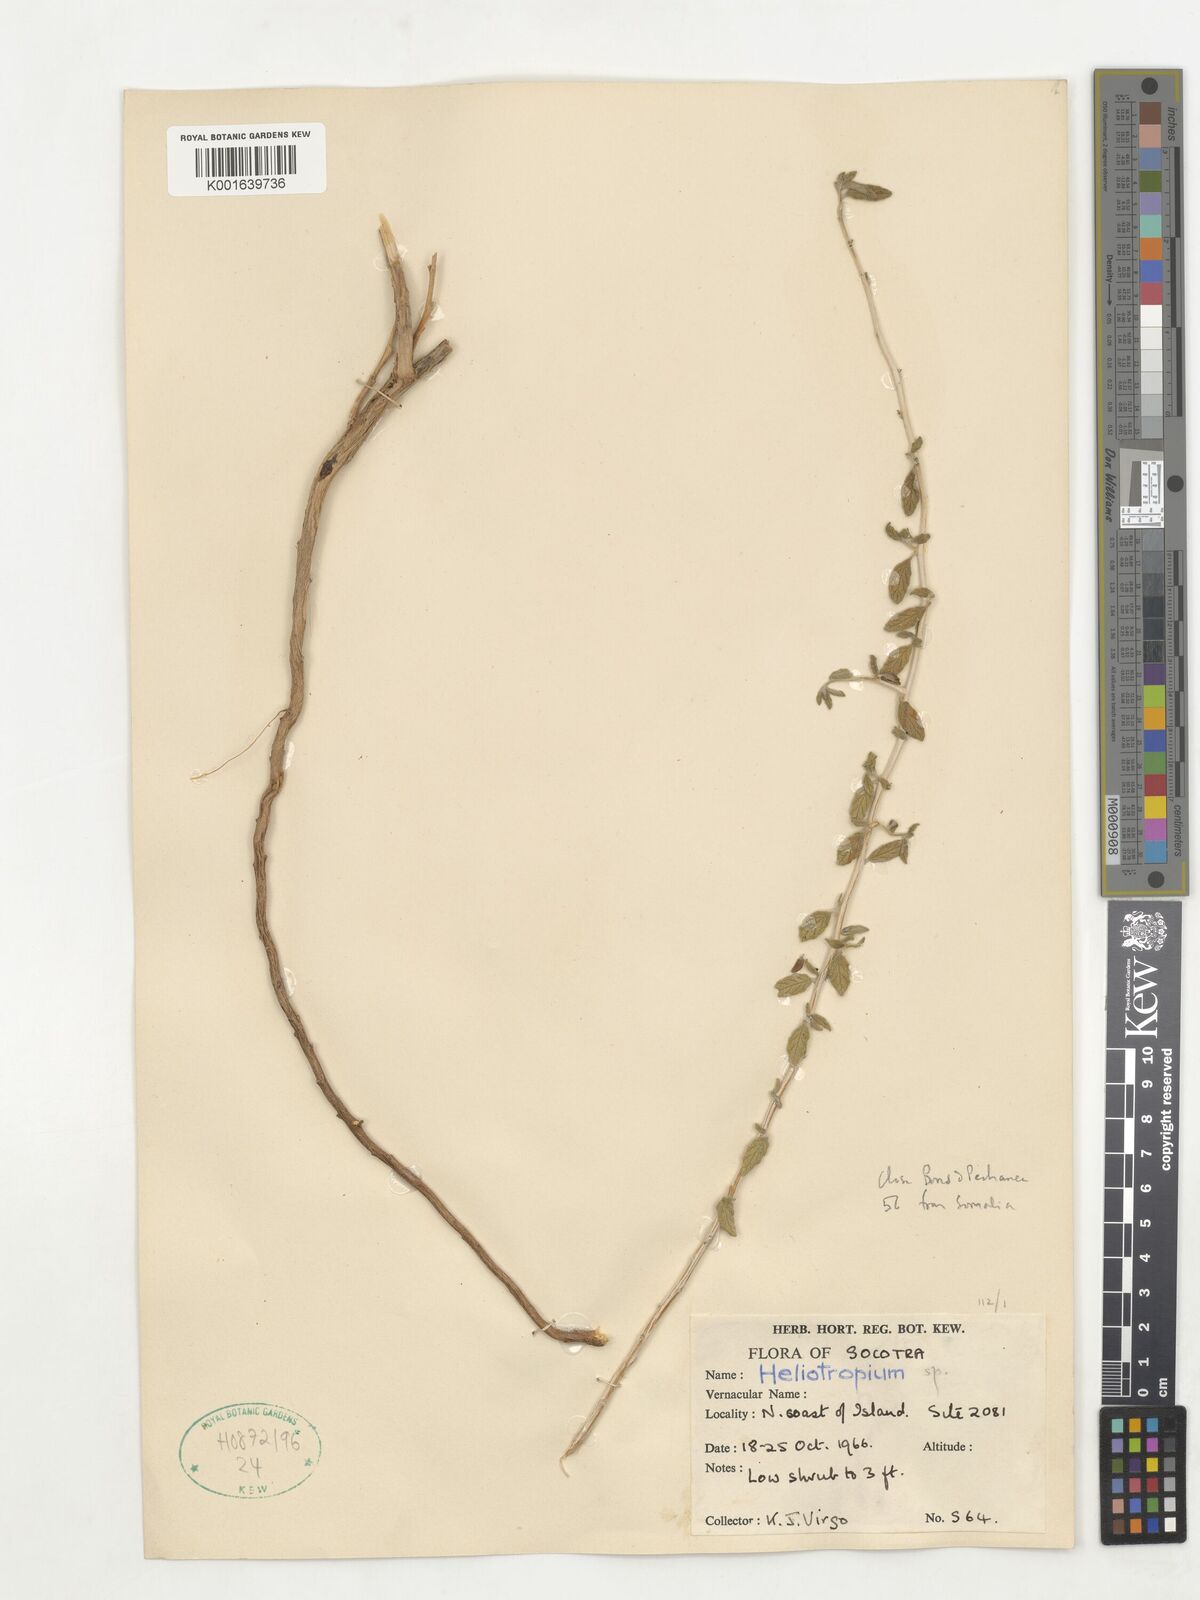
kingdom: Plantae
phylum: Tracheophyta
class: Magnoliopsida
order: Boraginales
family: Heliotropiaceae
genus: Heliotropium
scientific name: Heliotropium
